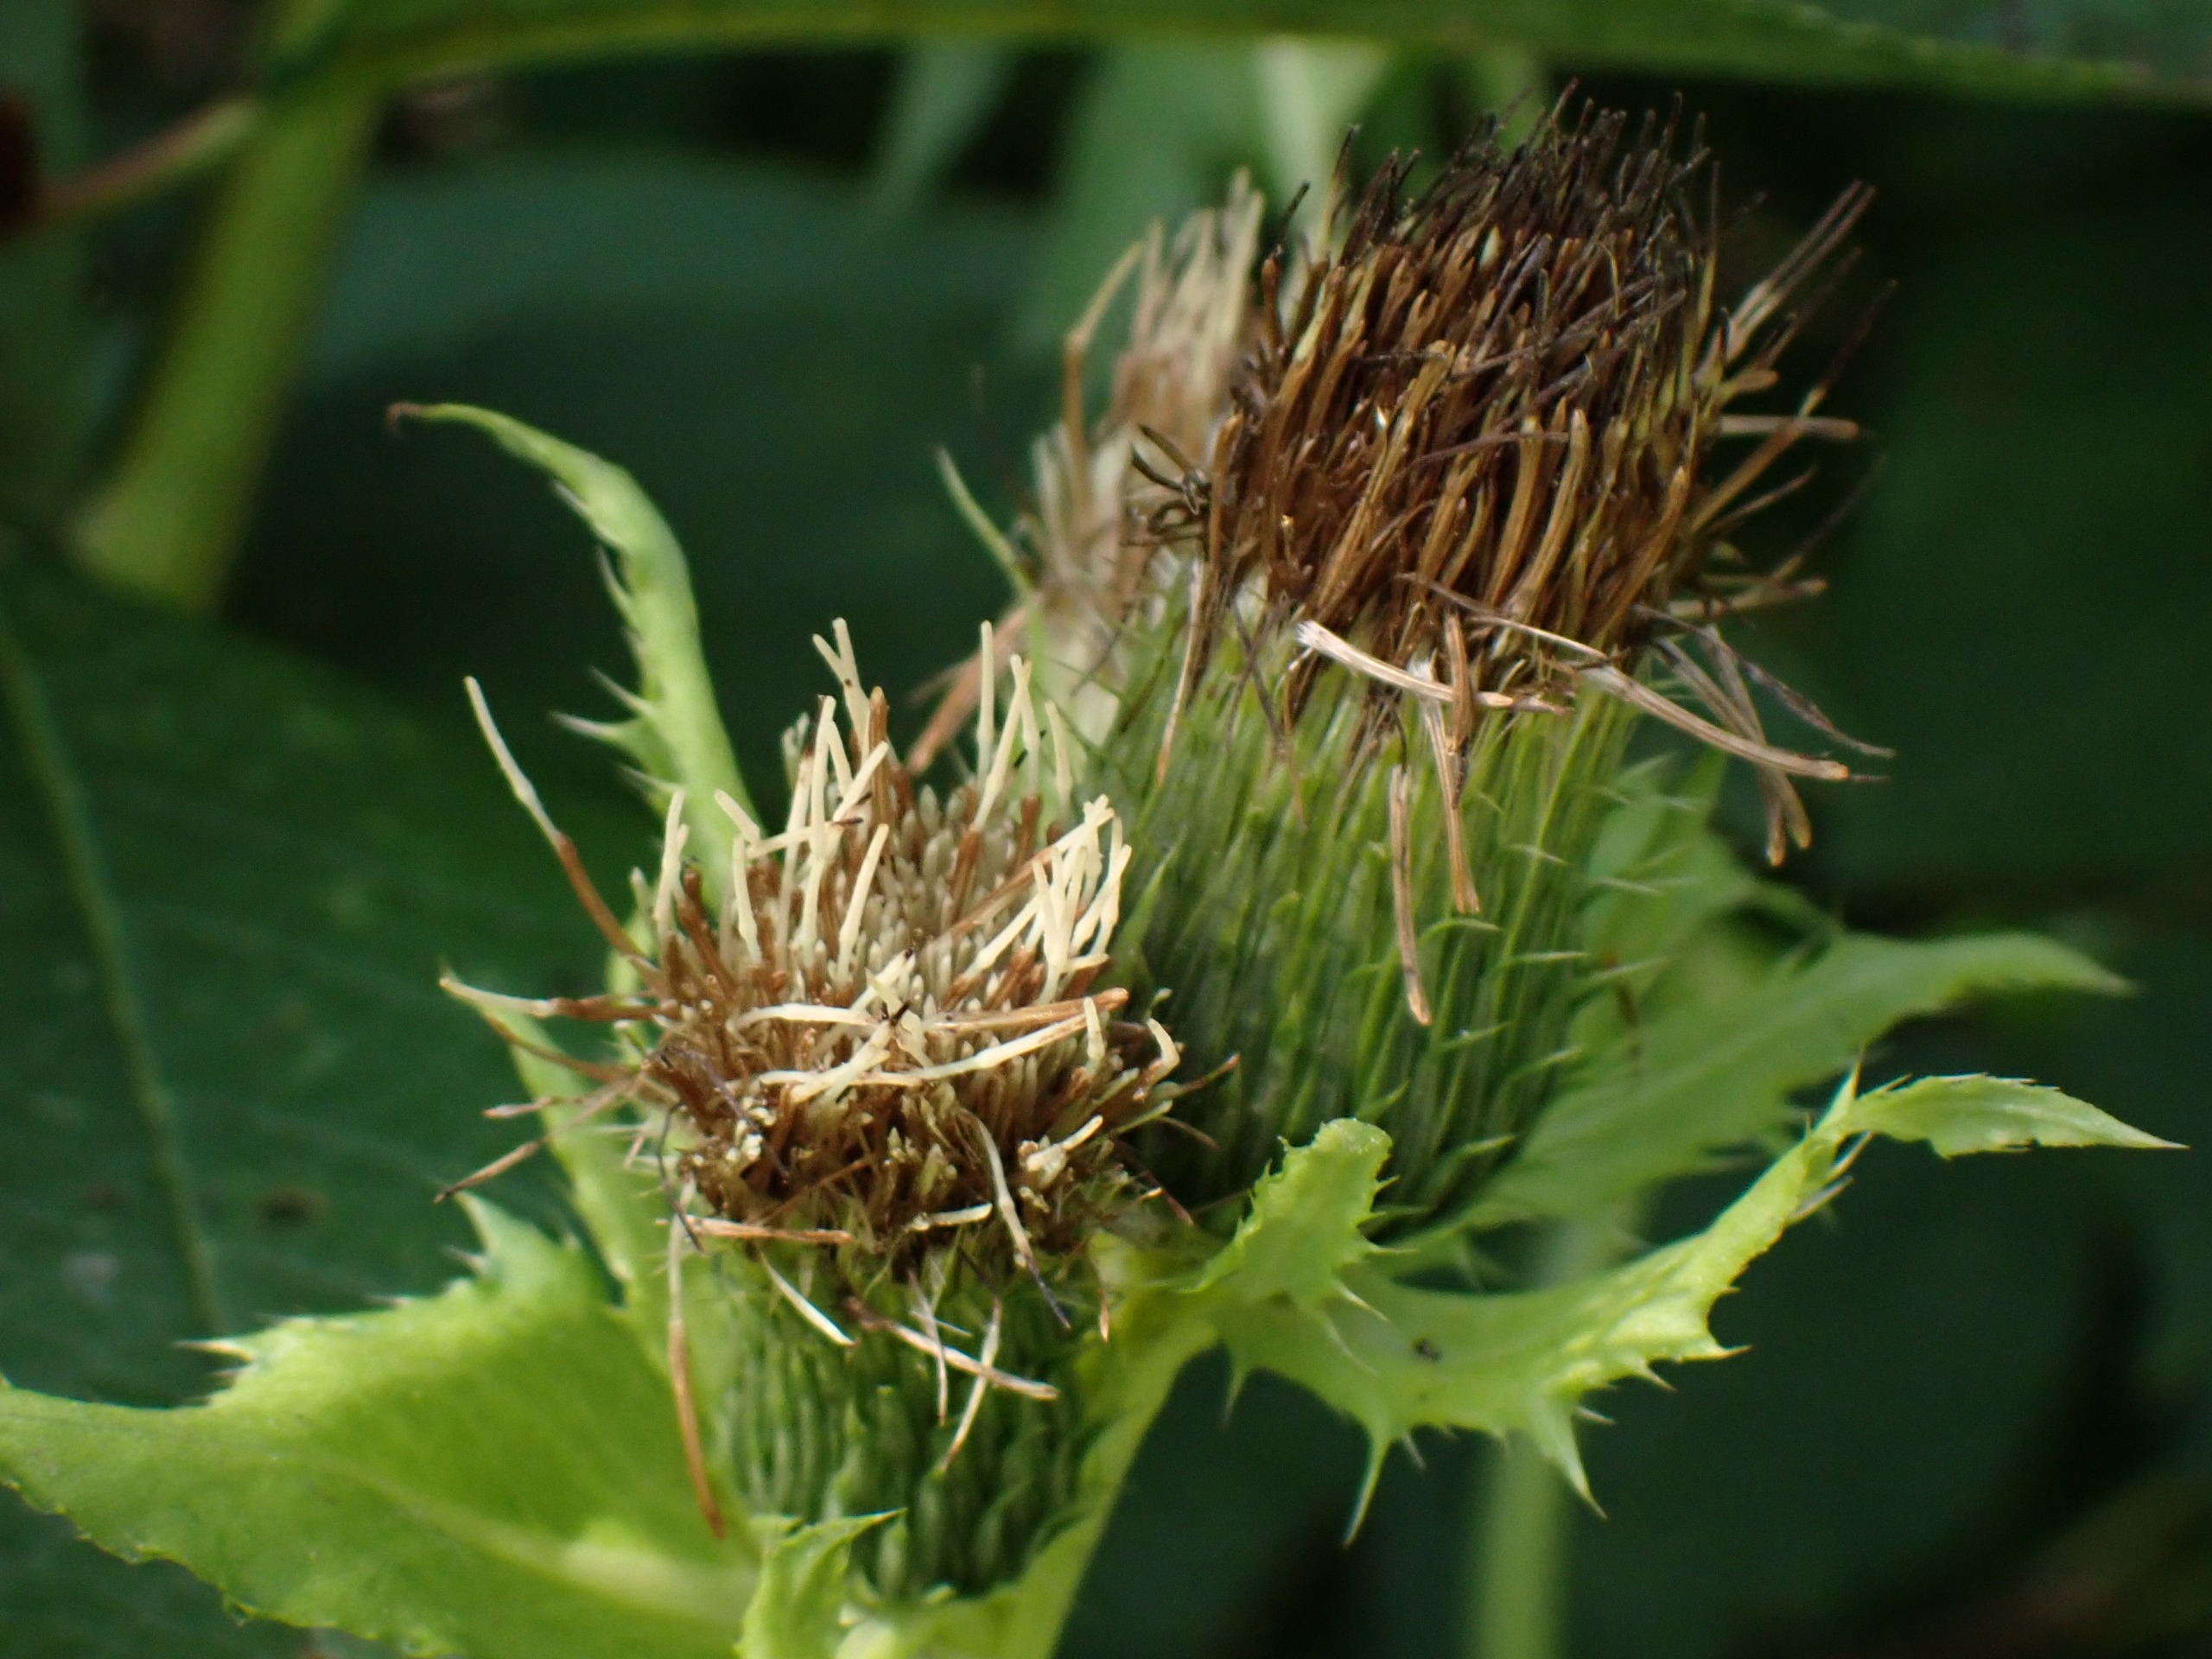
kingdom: Plantae
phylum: Tracheophyta
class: Magnoliopsida
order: Asterales
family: Asteraceae
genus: Cirsium
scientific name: Cirsium oleraceum
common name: Kål-tidsel
